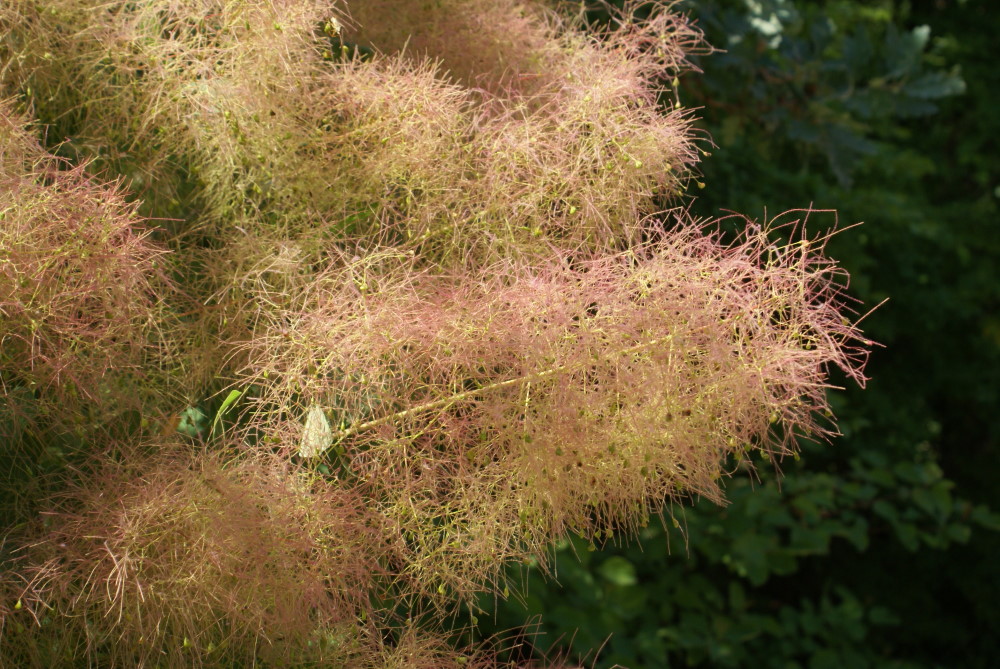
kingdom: Plantae
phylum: Tracheophyta
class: Magnoliopsida
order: Sapindales
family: Anacardiaceae
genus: Cotinus
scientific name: Cotinus coggygria
